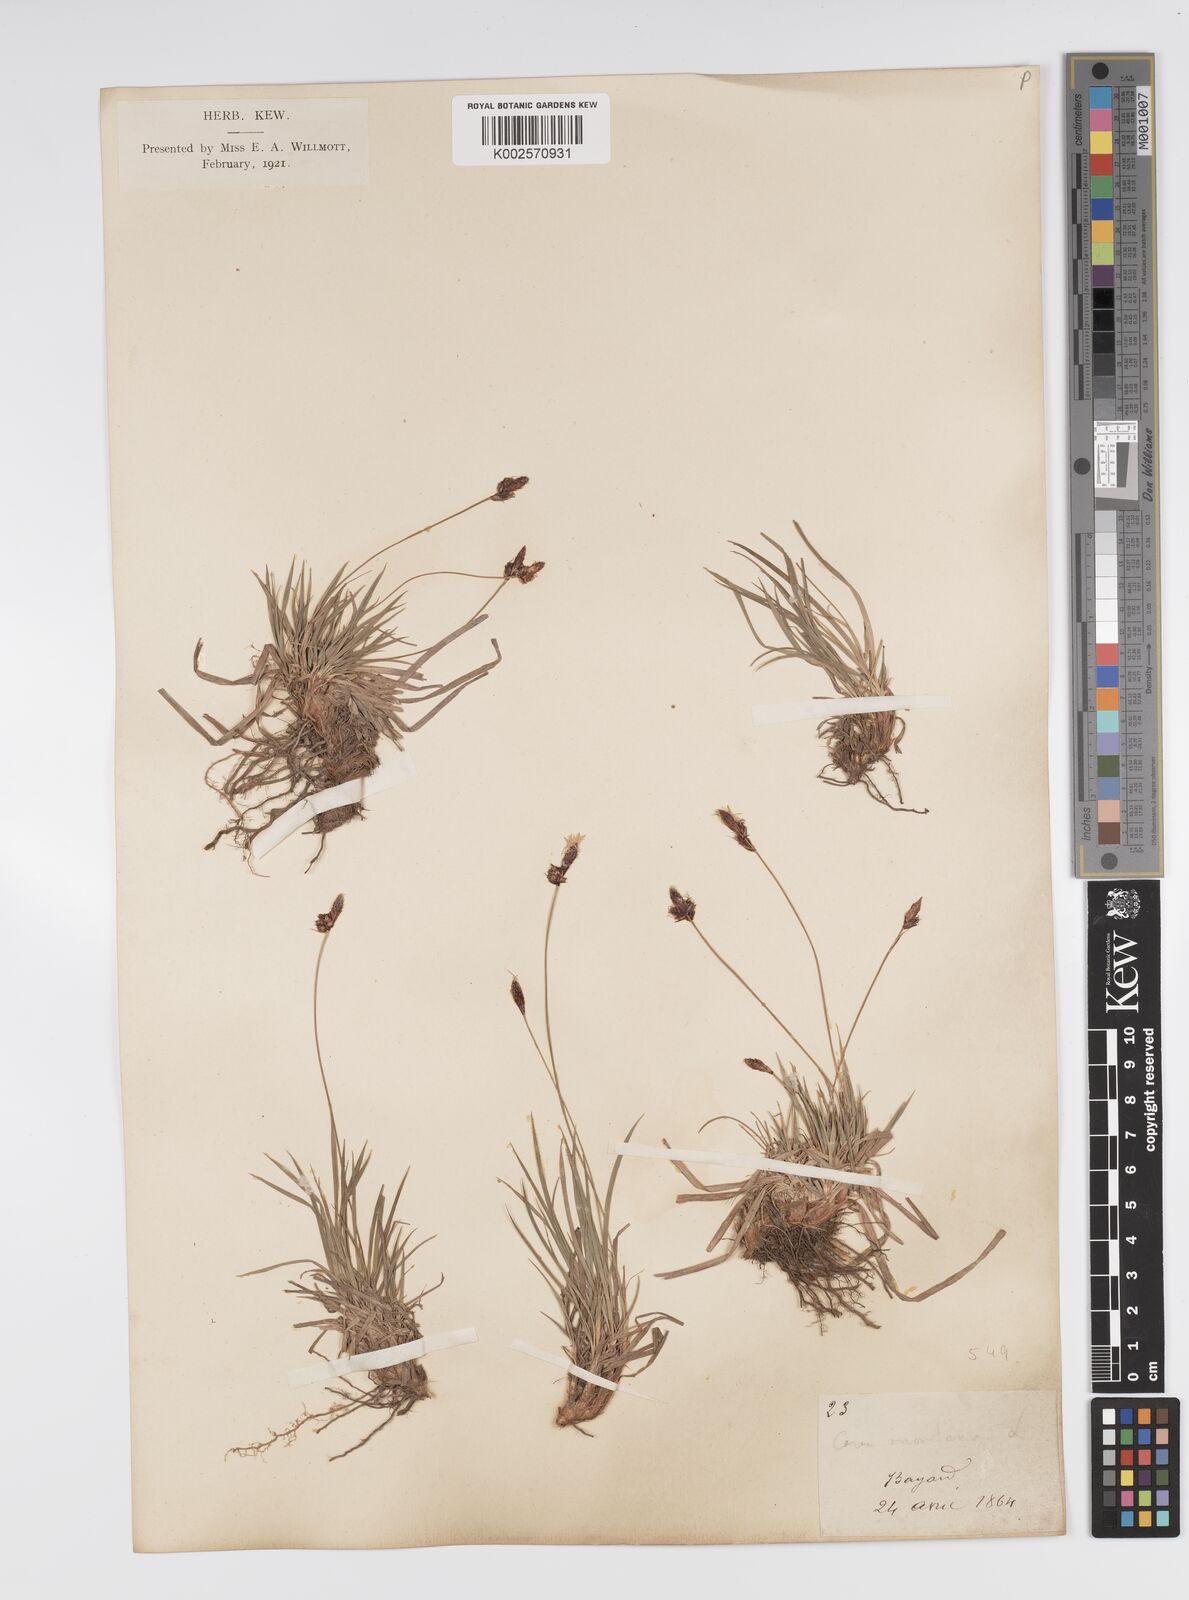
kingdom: Plantae
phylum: Tracheophyta
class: Liliopsida
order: Poales
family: Cyperaceae
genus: Carex
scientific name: Carex montana
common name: Soft-leaved sedge
